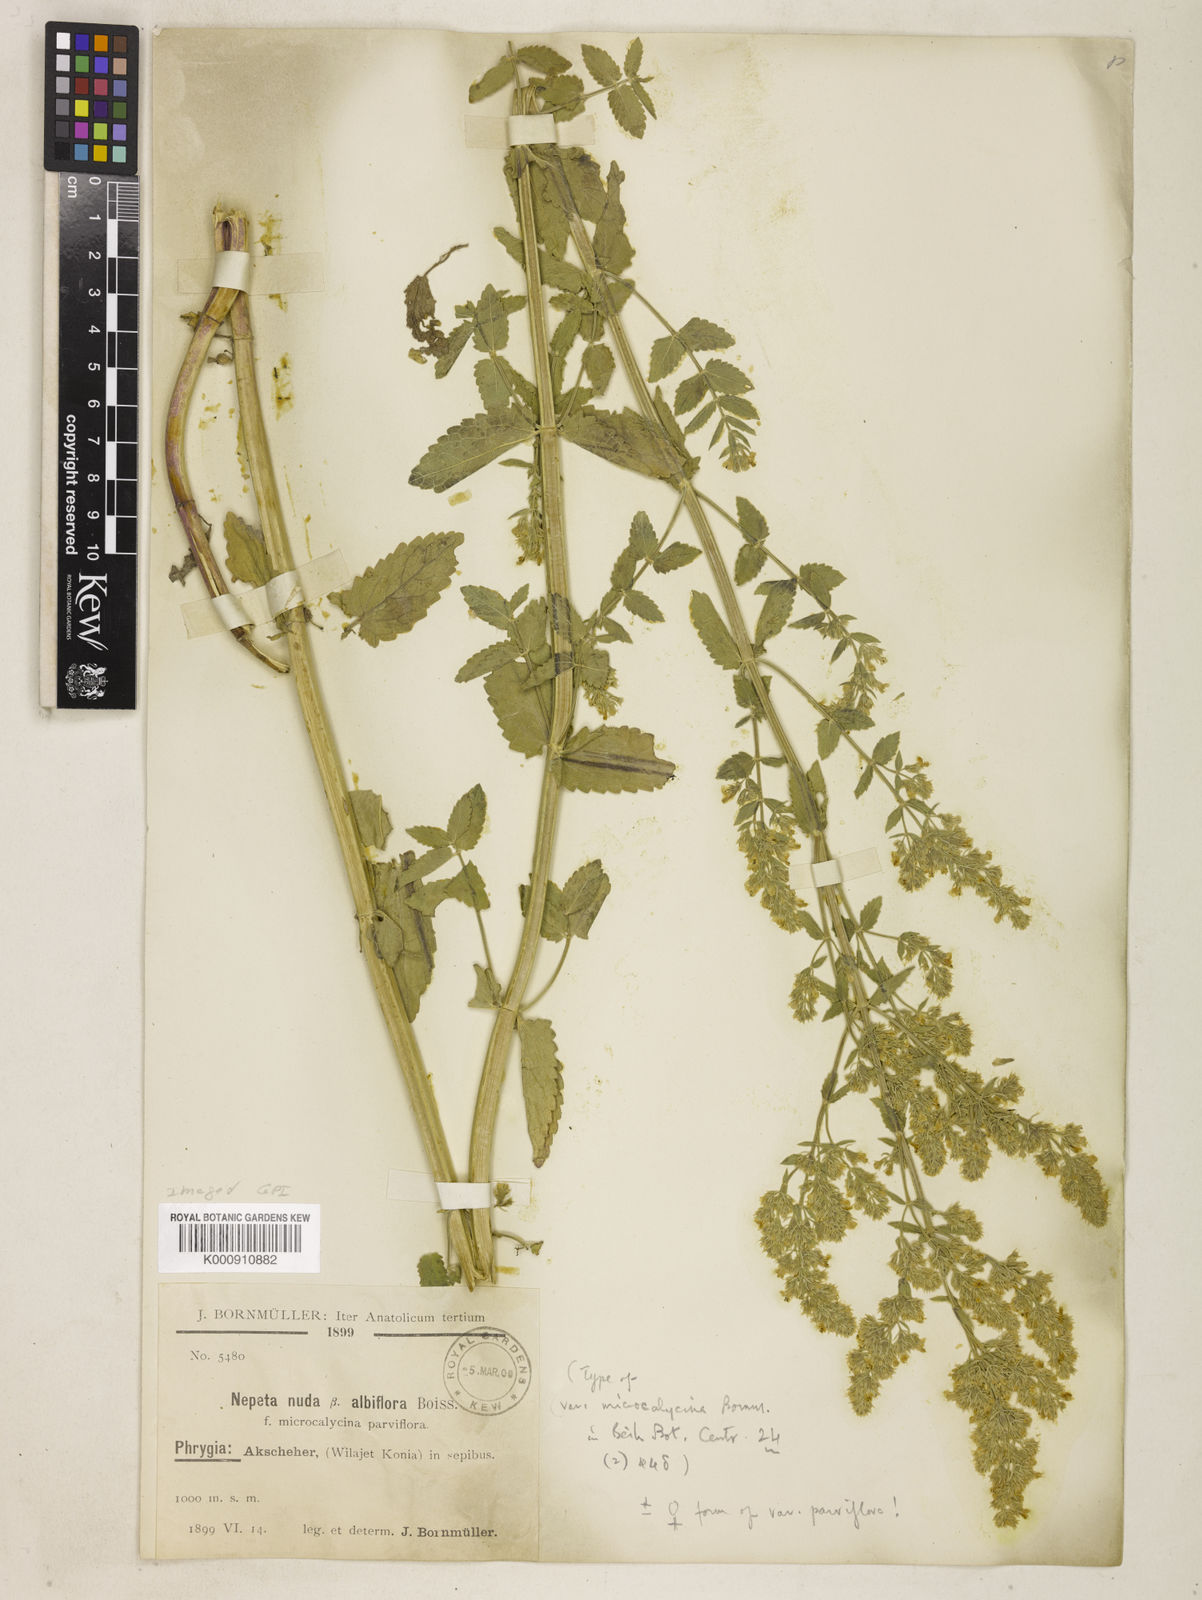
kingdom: Plantae
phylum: Tracheophyta
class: Magnoliopsida
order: Lamiales
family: Lamiaceae
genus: Nepeta
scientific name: Nepeta nuda
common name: Hairless catmint
